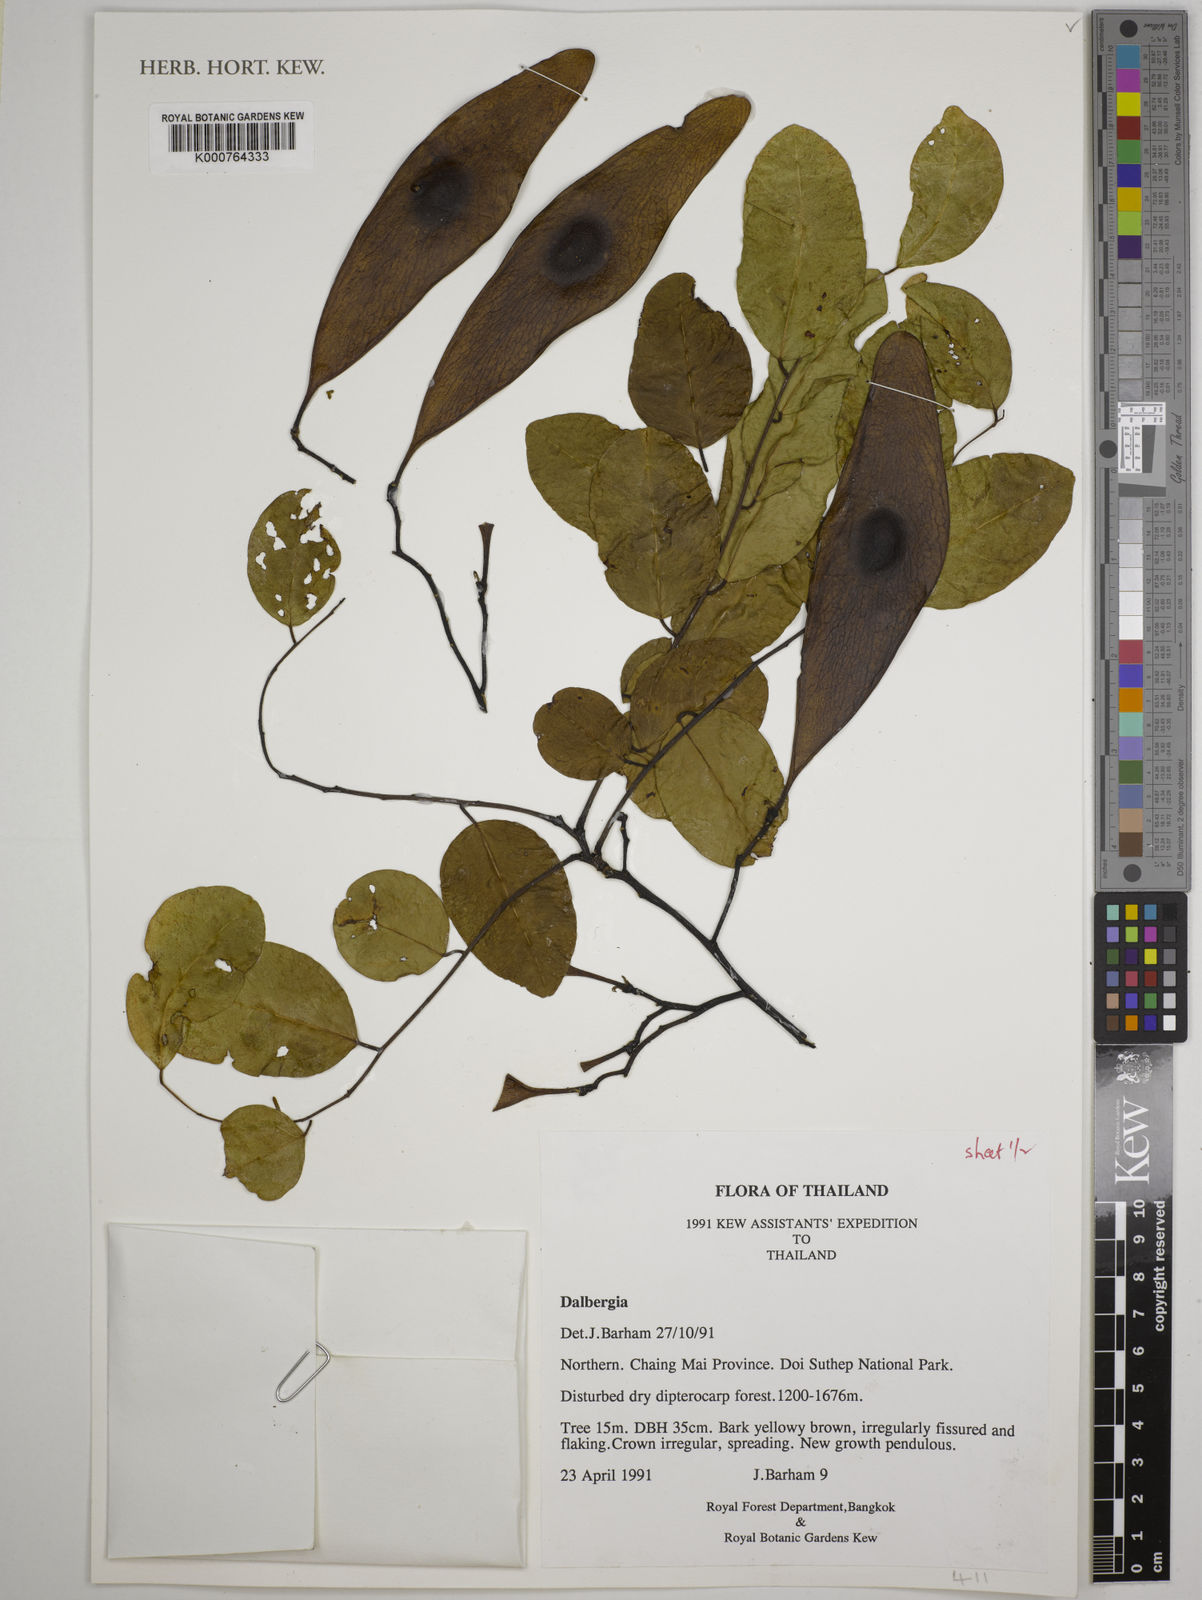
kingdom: Plantae
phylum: Tracheophyta
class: Magnoliopsida
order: Fabales
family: Fabaceae
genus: Dalbergia
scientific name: Dalbergia
